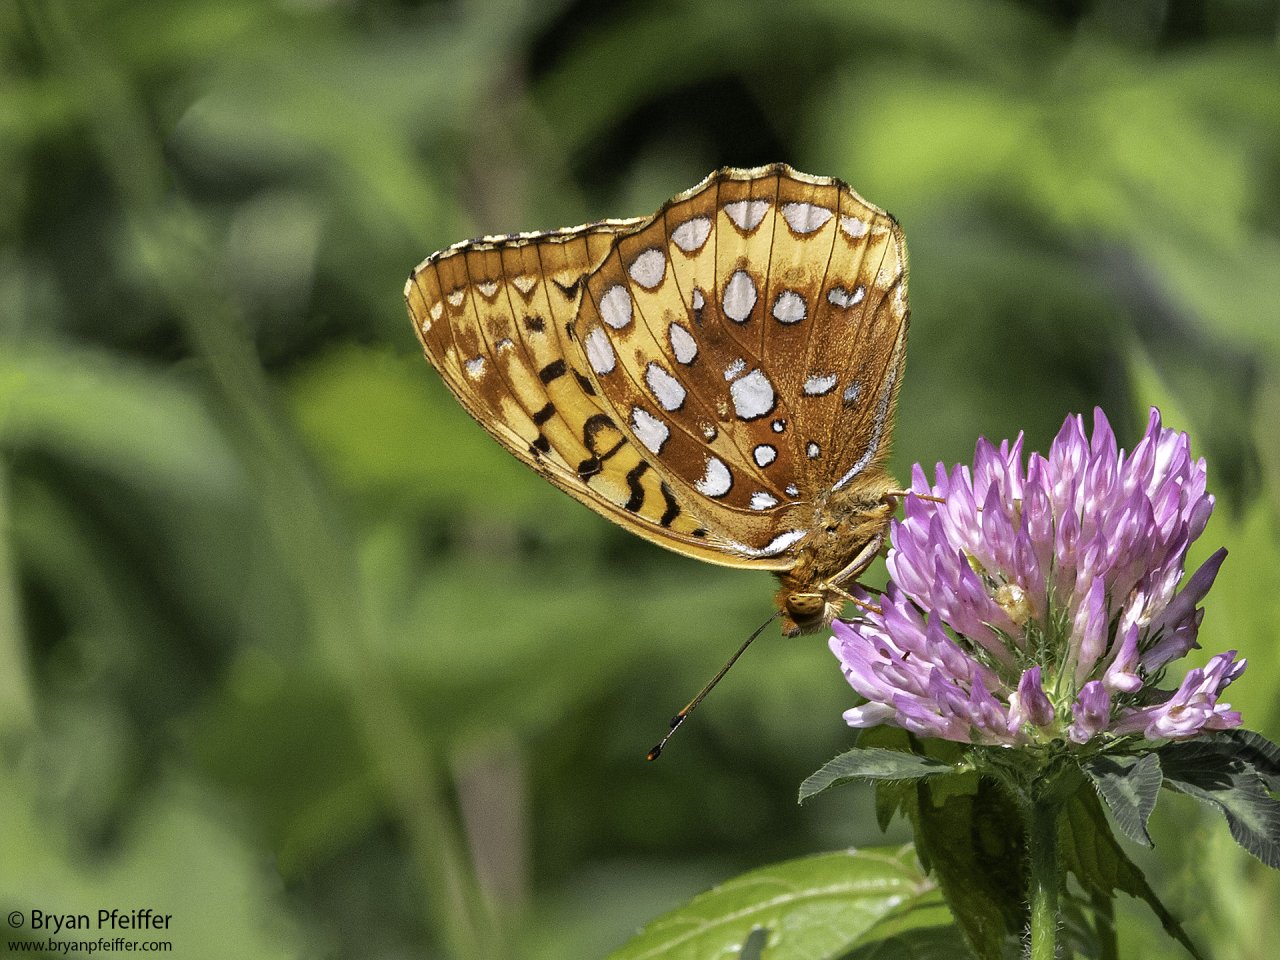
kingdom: Animalia
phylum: Arthropoda
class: Insecta
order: Lepidoptera
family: Nymphalidae
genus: Speyeria
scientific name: Speyeria cybele
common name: Great Spangled Fritillary
